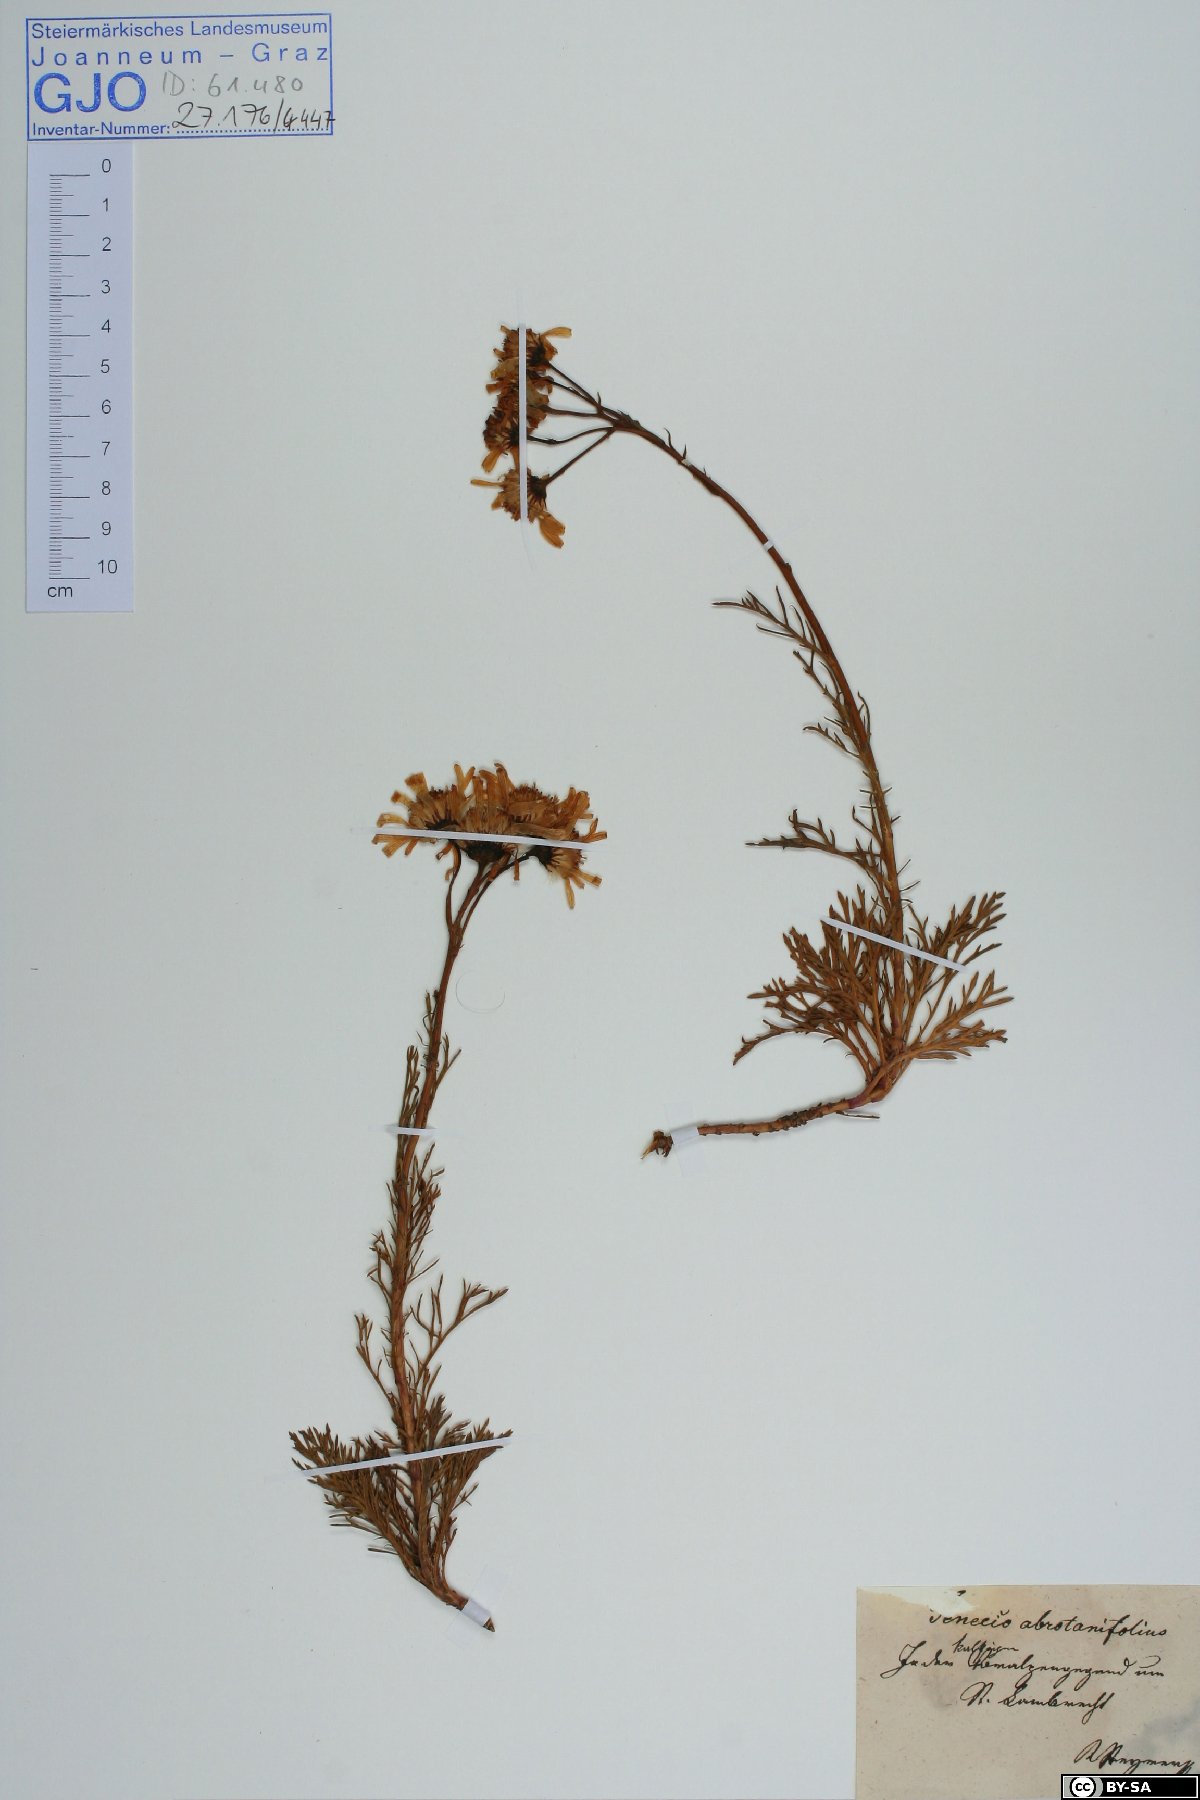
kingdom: Plantae
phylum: Tracheophyta
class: Magnoliopsida
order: Asterales
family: Asteraceae
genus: Jacobaea
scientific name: Jacobaea abrotanifolia
